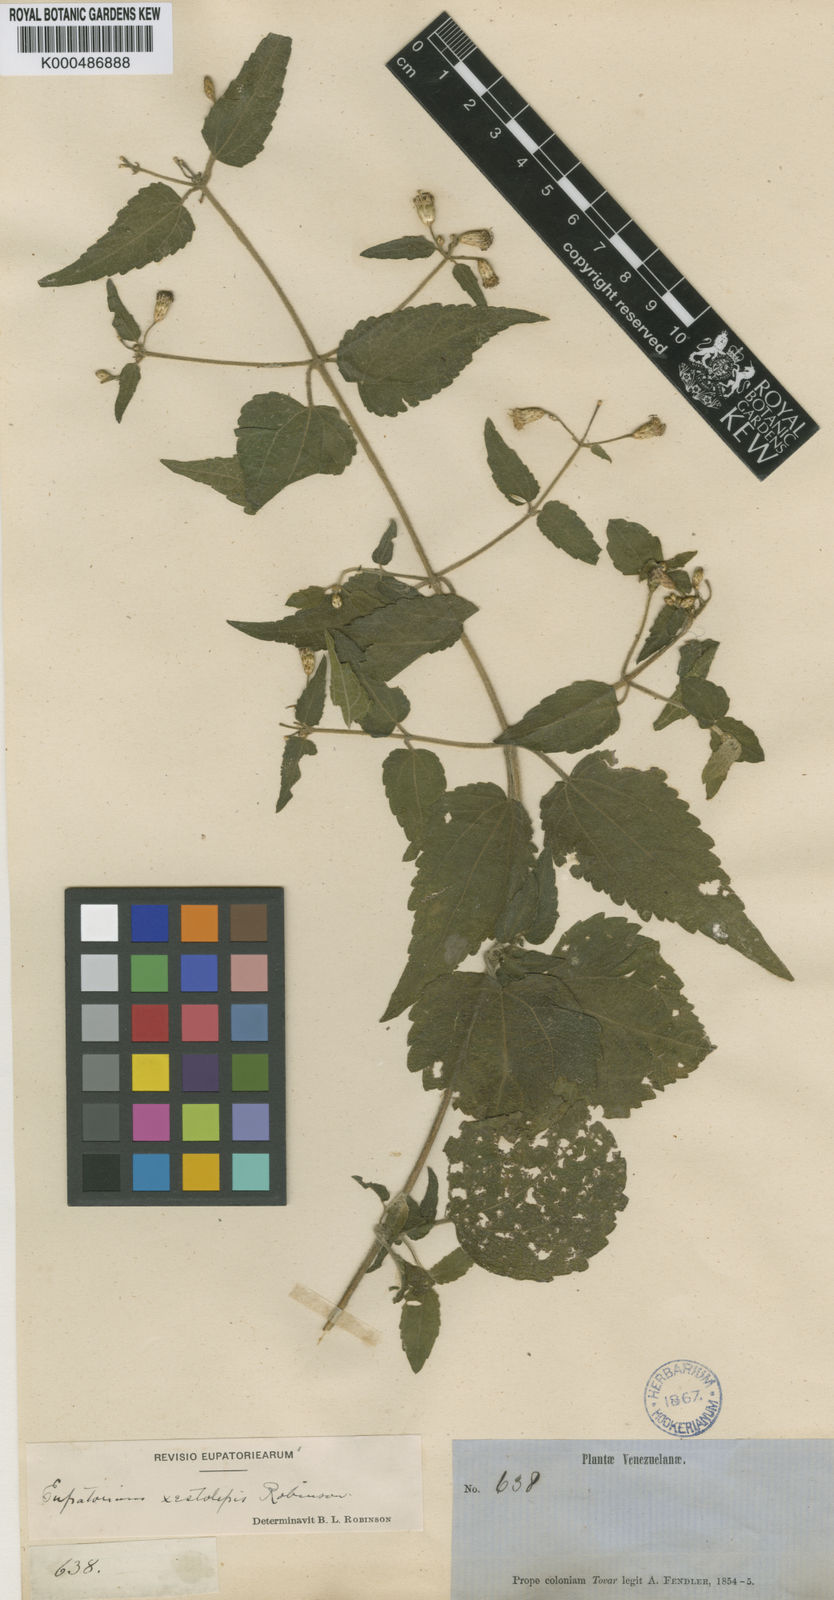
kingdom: Plantae
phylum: Tracheophyta
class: Magnoliopsida
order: Asterales
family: Asteraceae
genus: Chromolaena
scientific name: Chromolaena xestolepis
